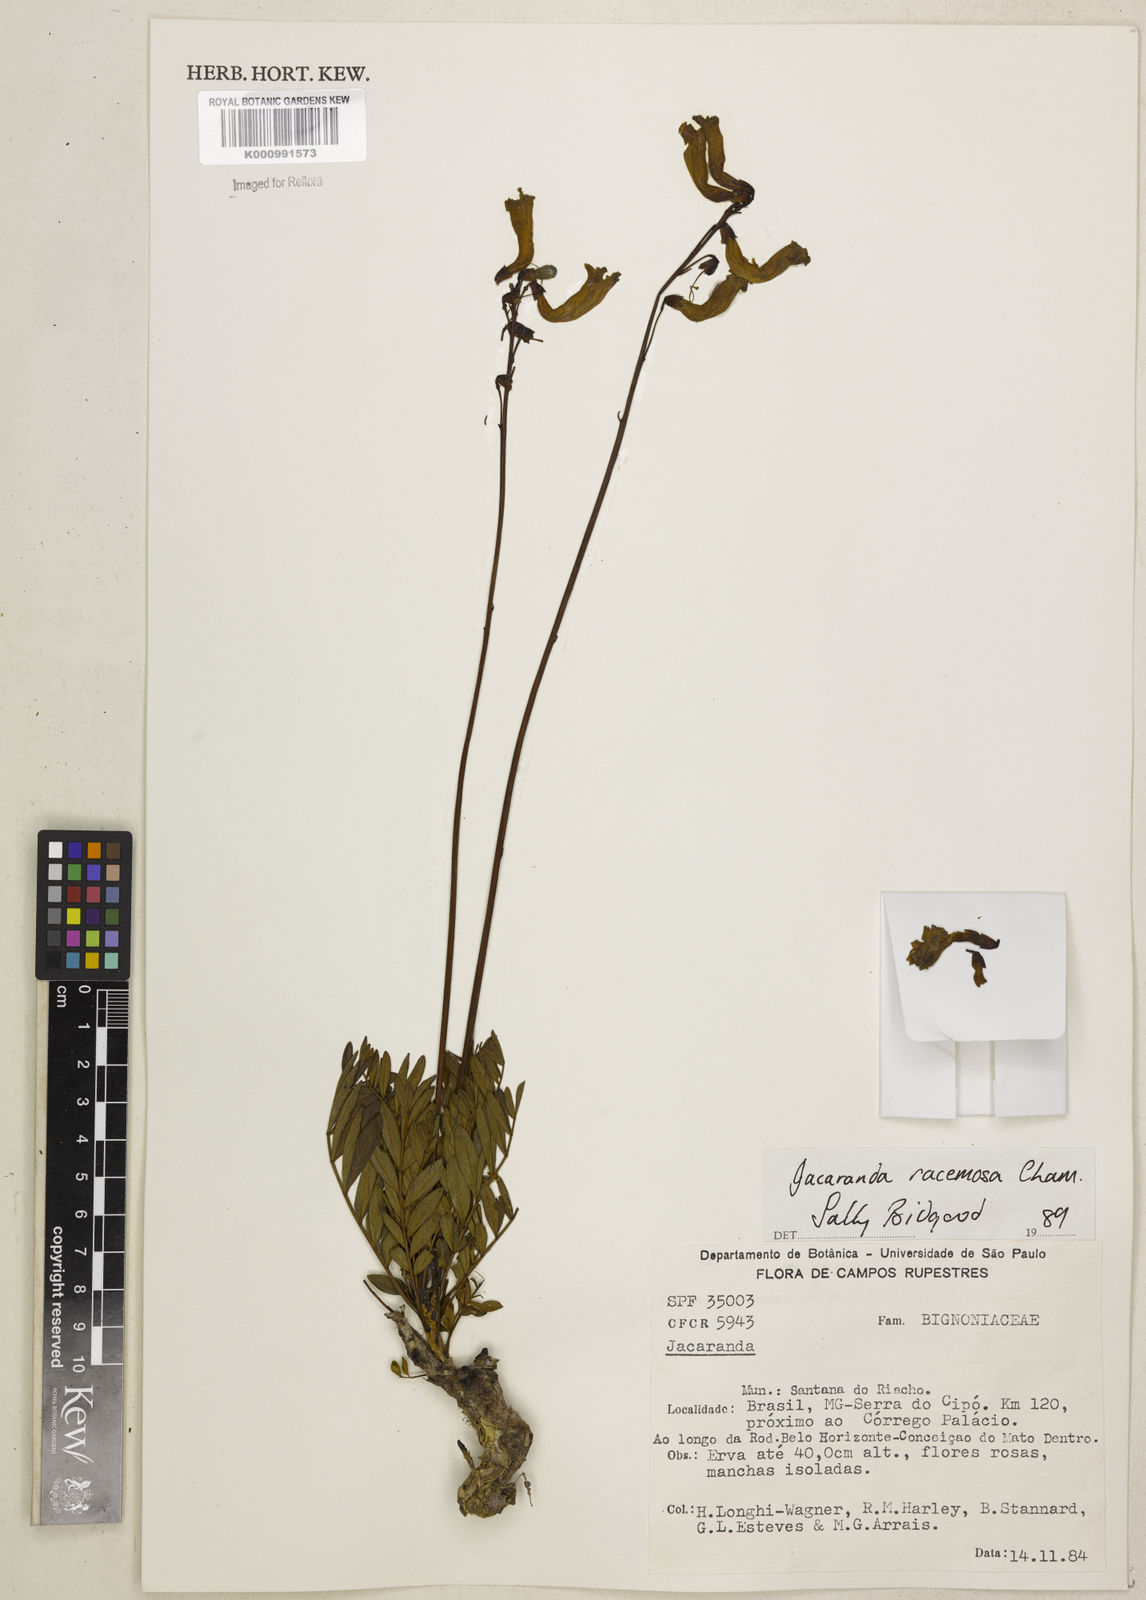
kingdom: Plantae
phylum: Tracheophyta
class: Magnoliopsida
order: Lamiales
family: Bignoniaceae
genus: Jacaranda
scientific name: Jacaranda racemosa
